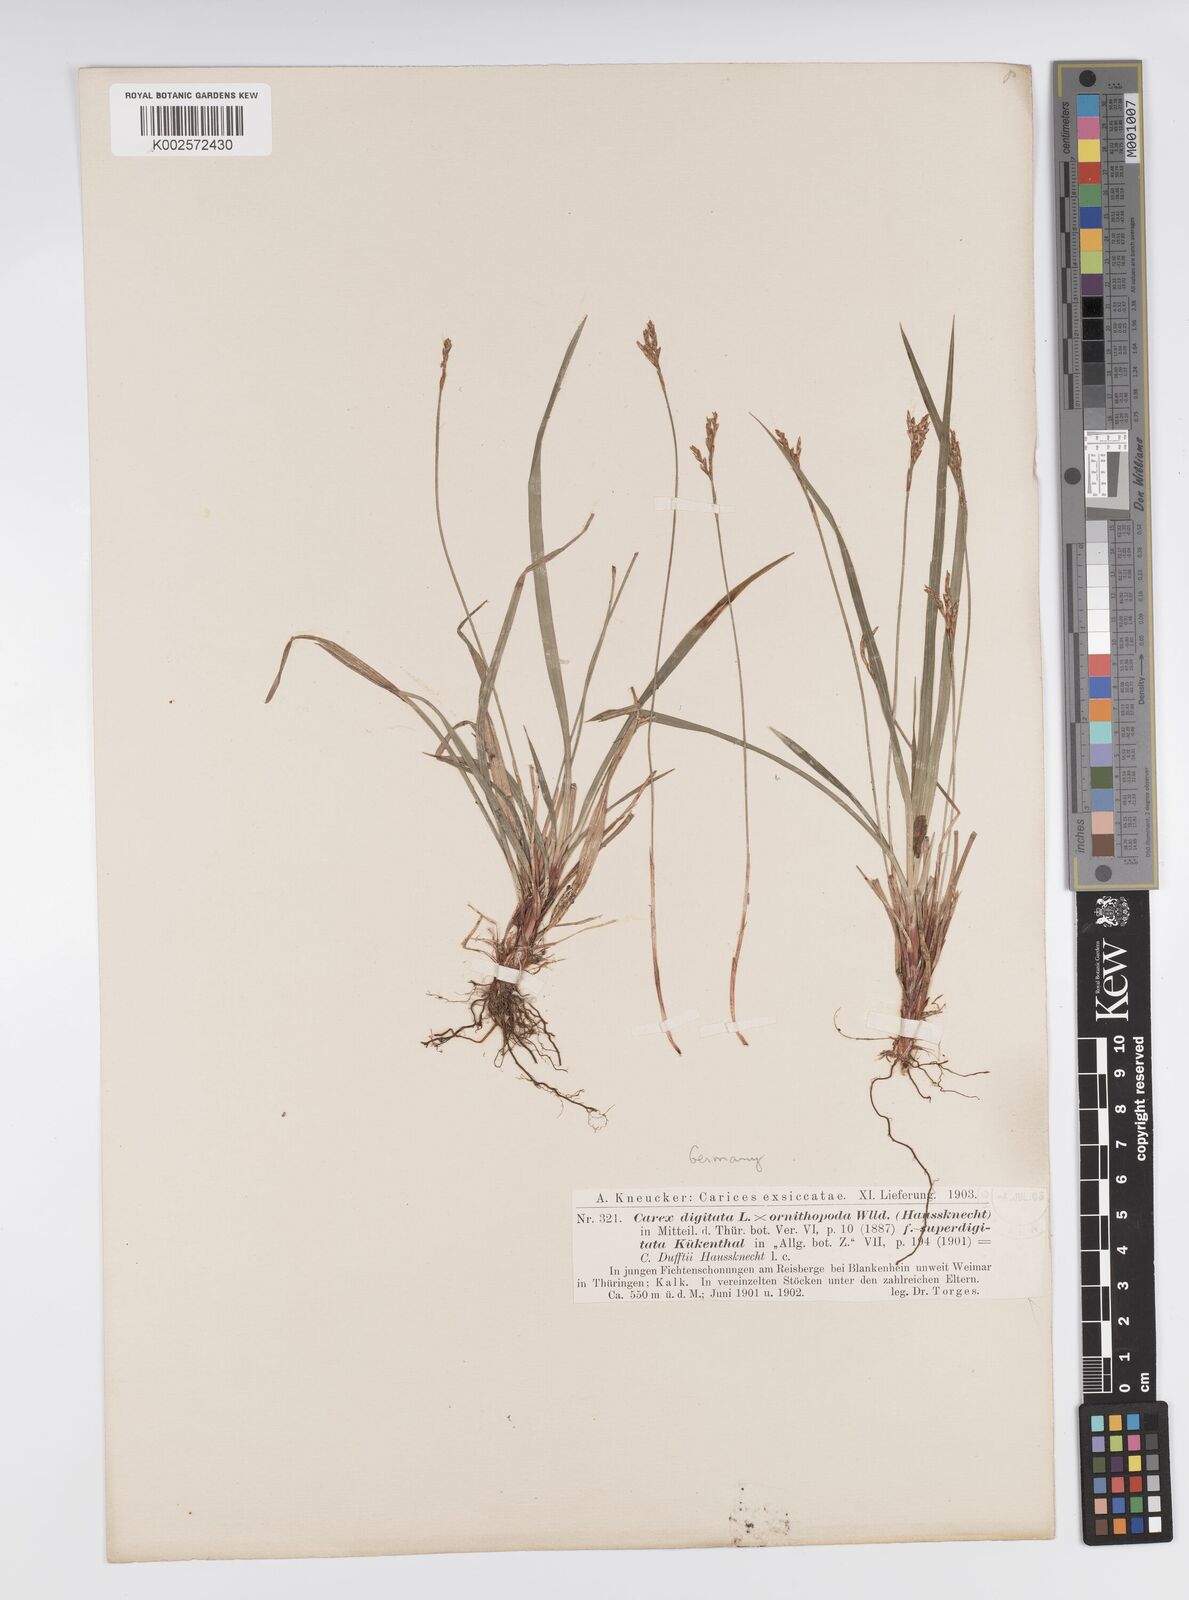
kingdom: Plantae
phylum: Tracheophyta
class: Liliopsida
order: Poales
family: Cyperaceae
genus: Carex
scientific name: Carex digitata
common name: Fingered sedge
